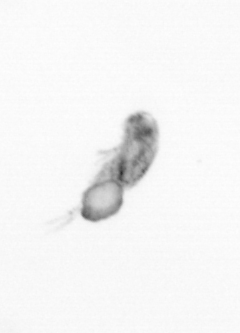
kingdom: Animalia
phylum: Arthropoda
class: Copepoda
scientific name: Copepoda
